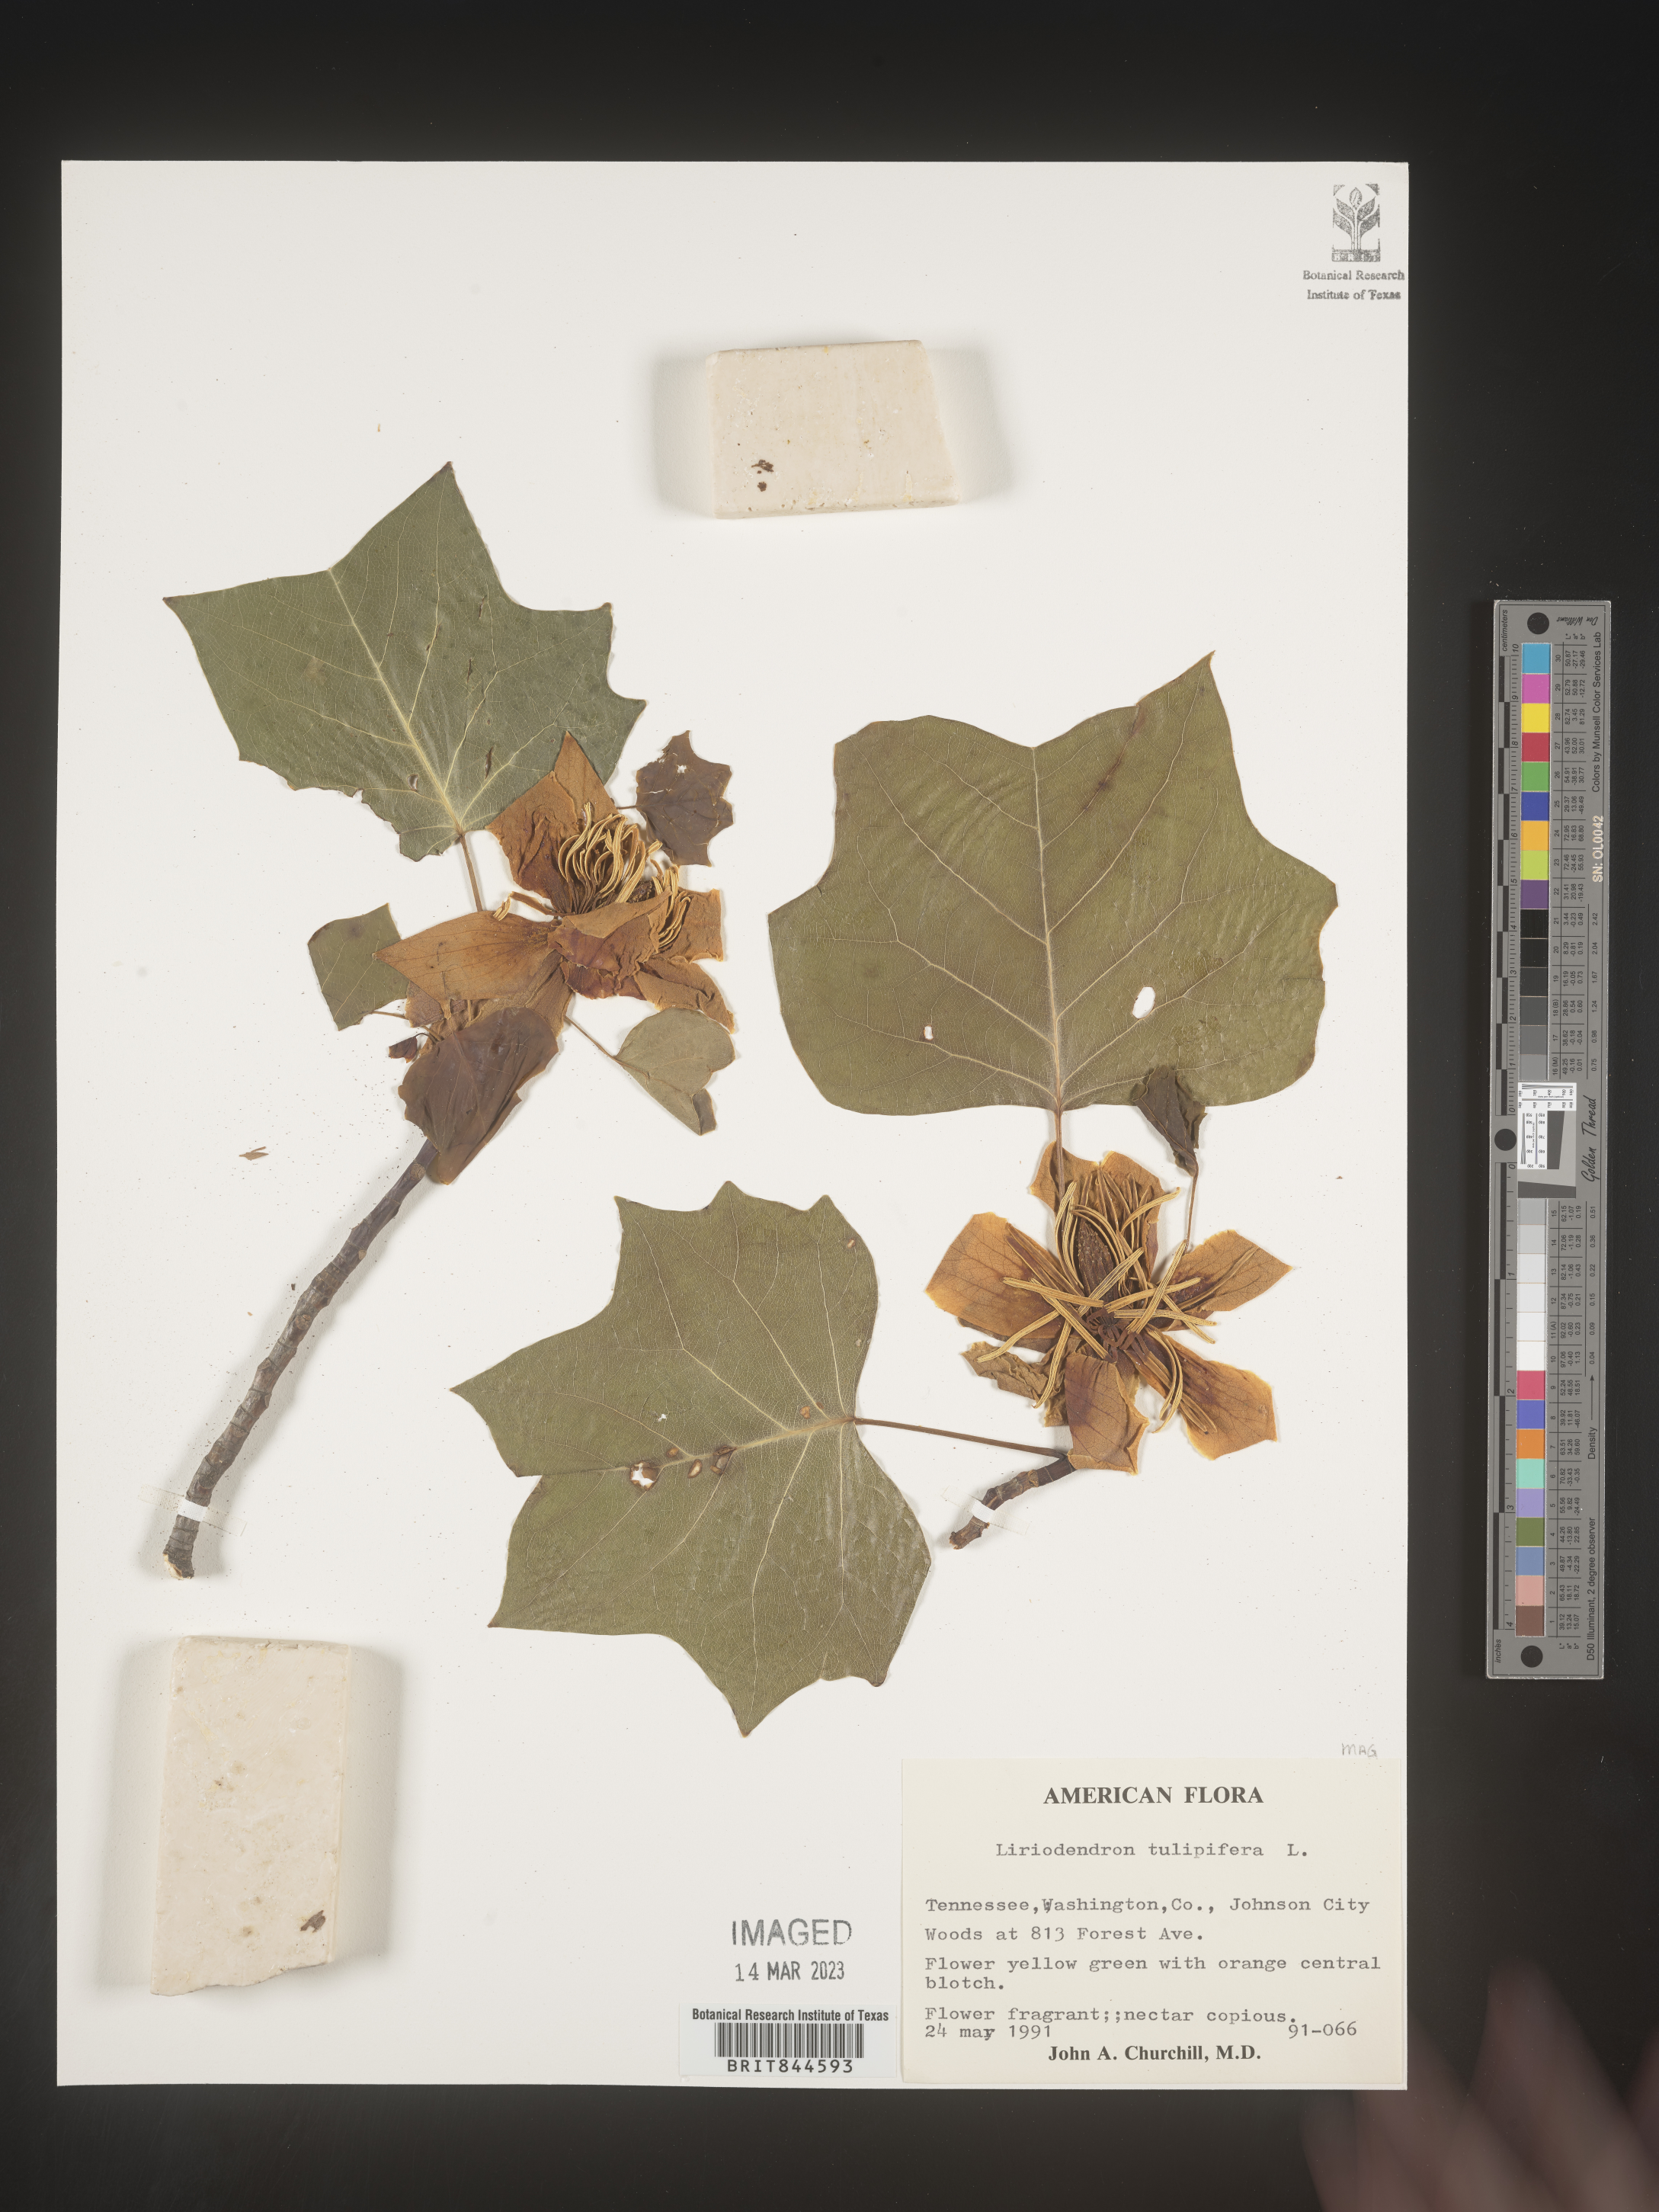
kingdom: Plantae
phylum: Tracheophyta
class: Magnoliopsida
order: Magnoliales
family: Magnoliaceae
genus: Liriodendron
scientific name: Liriodendron tulipifera
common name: Tulip tree
